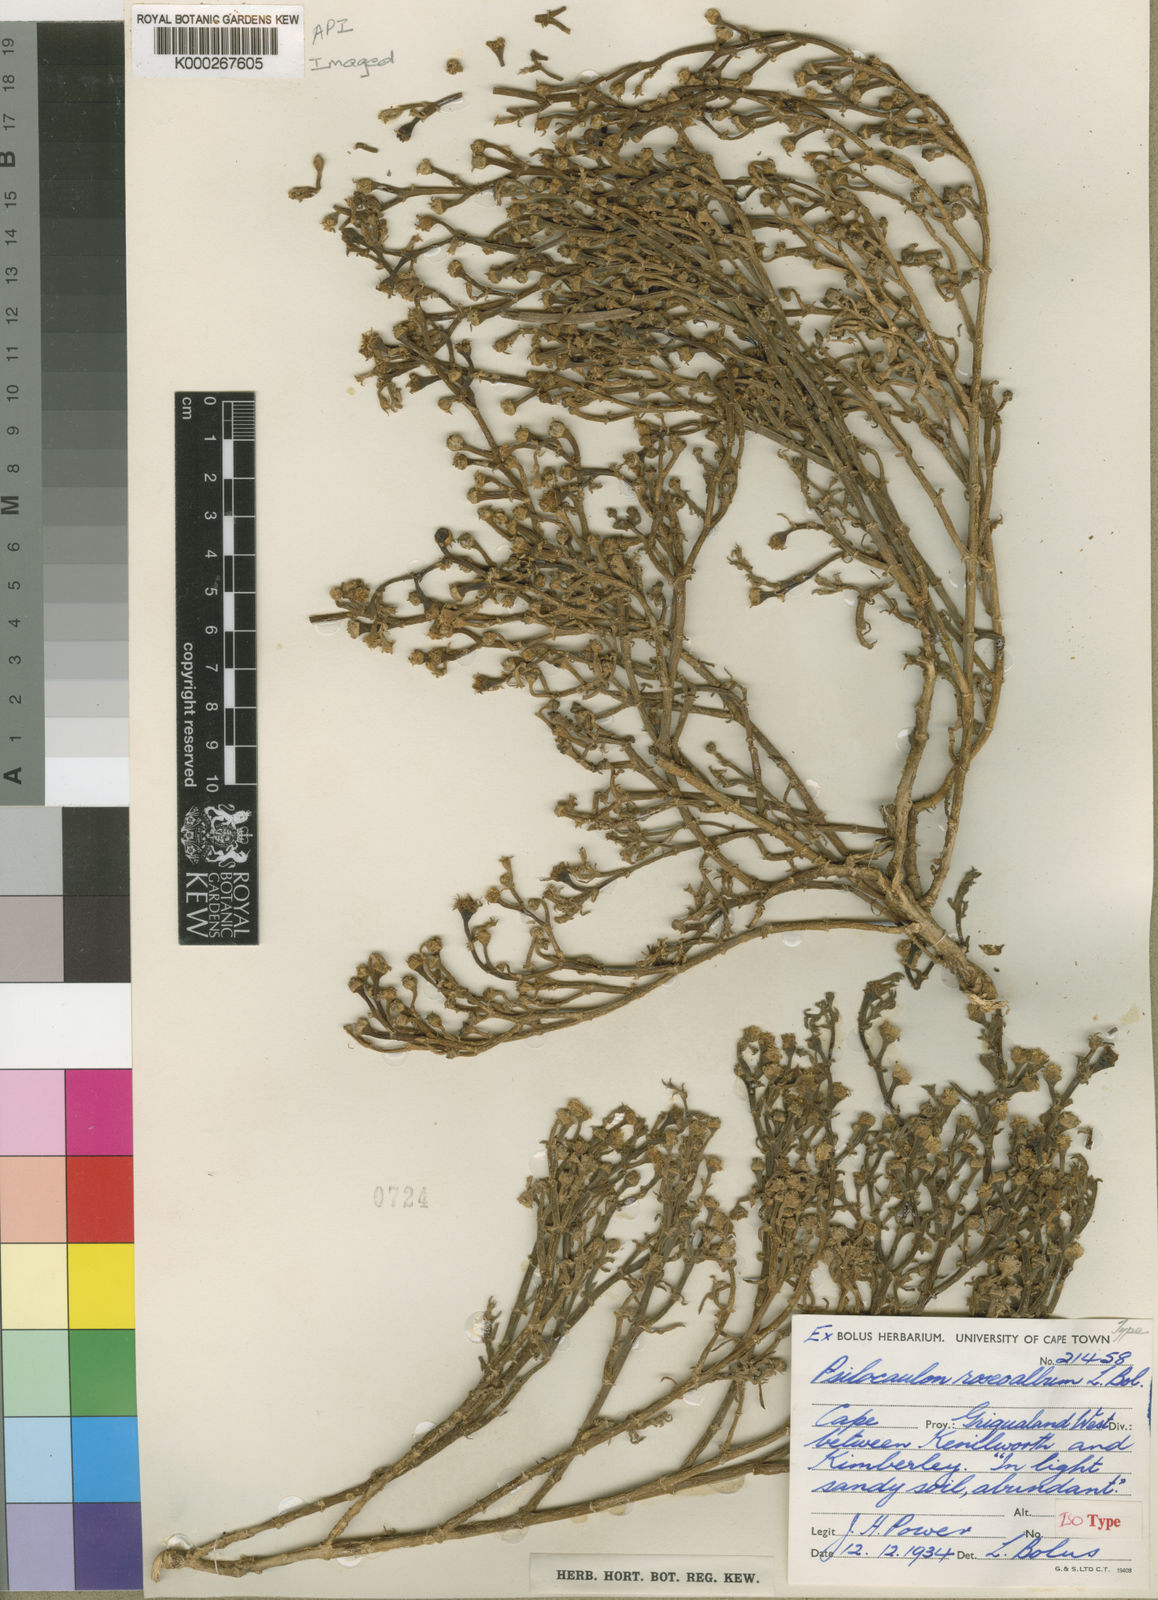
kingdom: Plantae
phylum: Tracheophyta
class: Magnoliopsida
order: Caryophyllales
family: Aizoaceae
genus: Mesembryanthemum
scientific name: Mesembryanthemum articulatum
